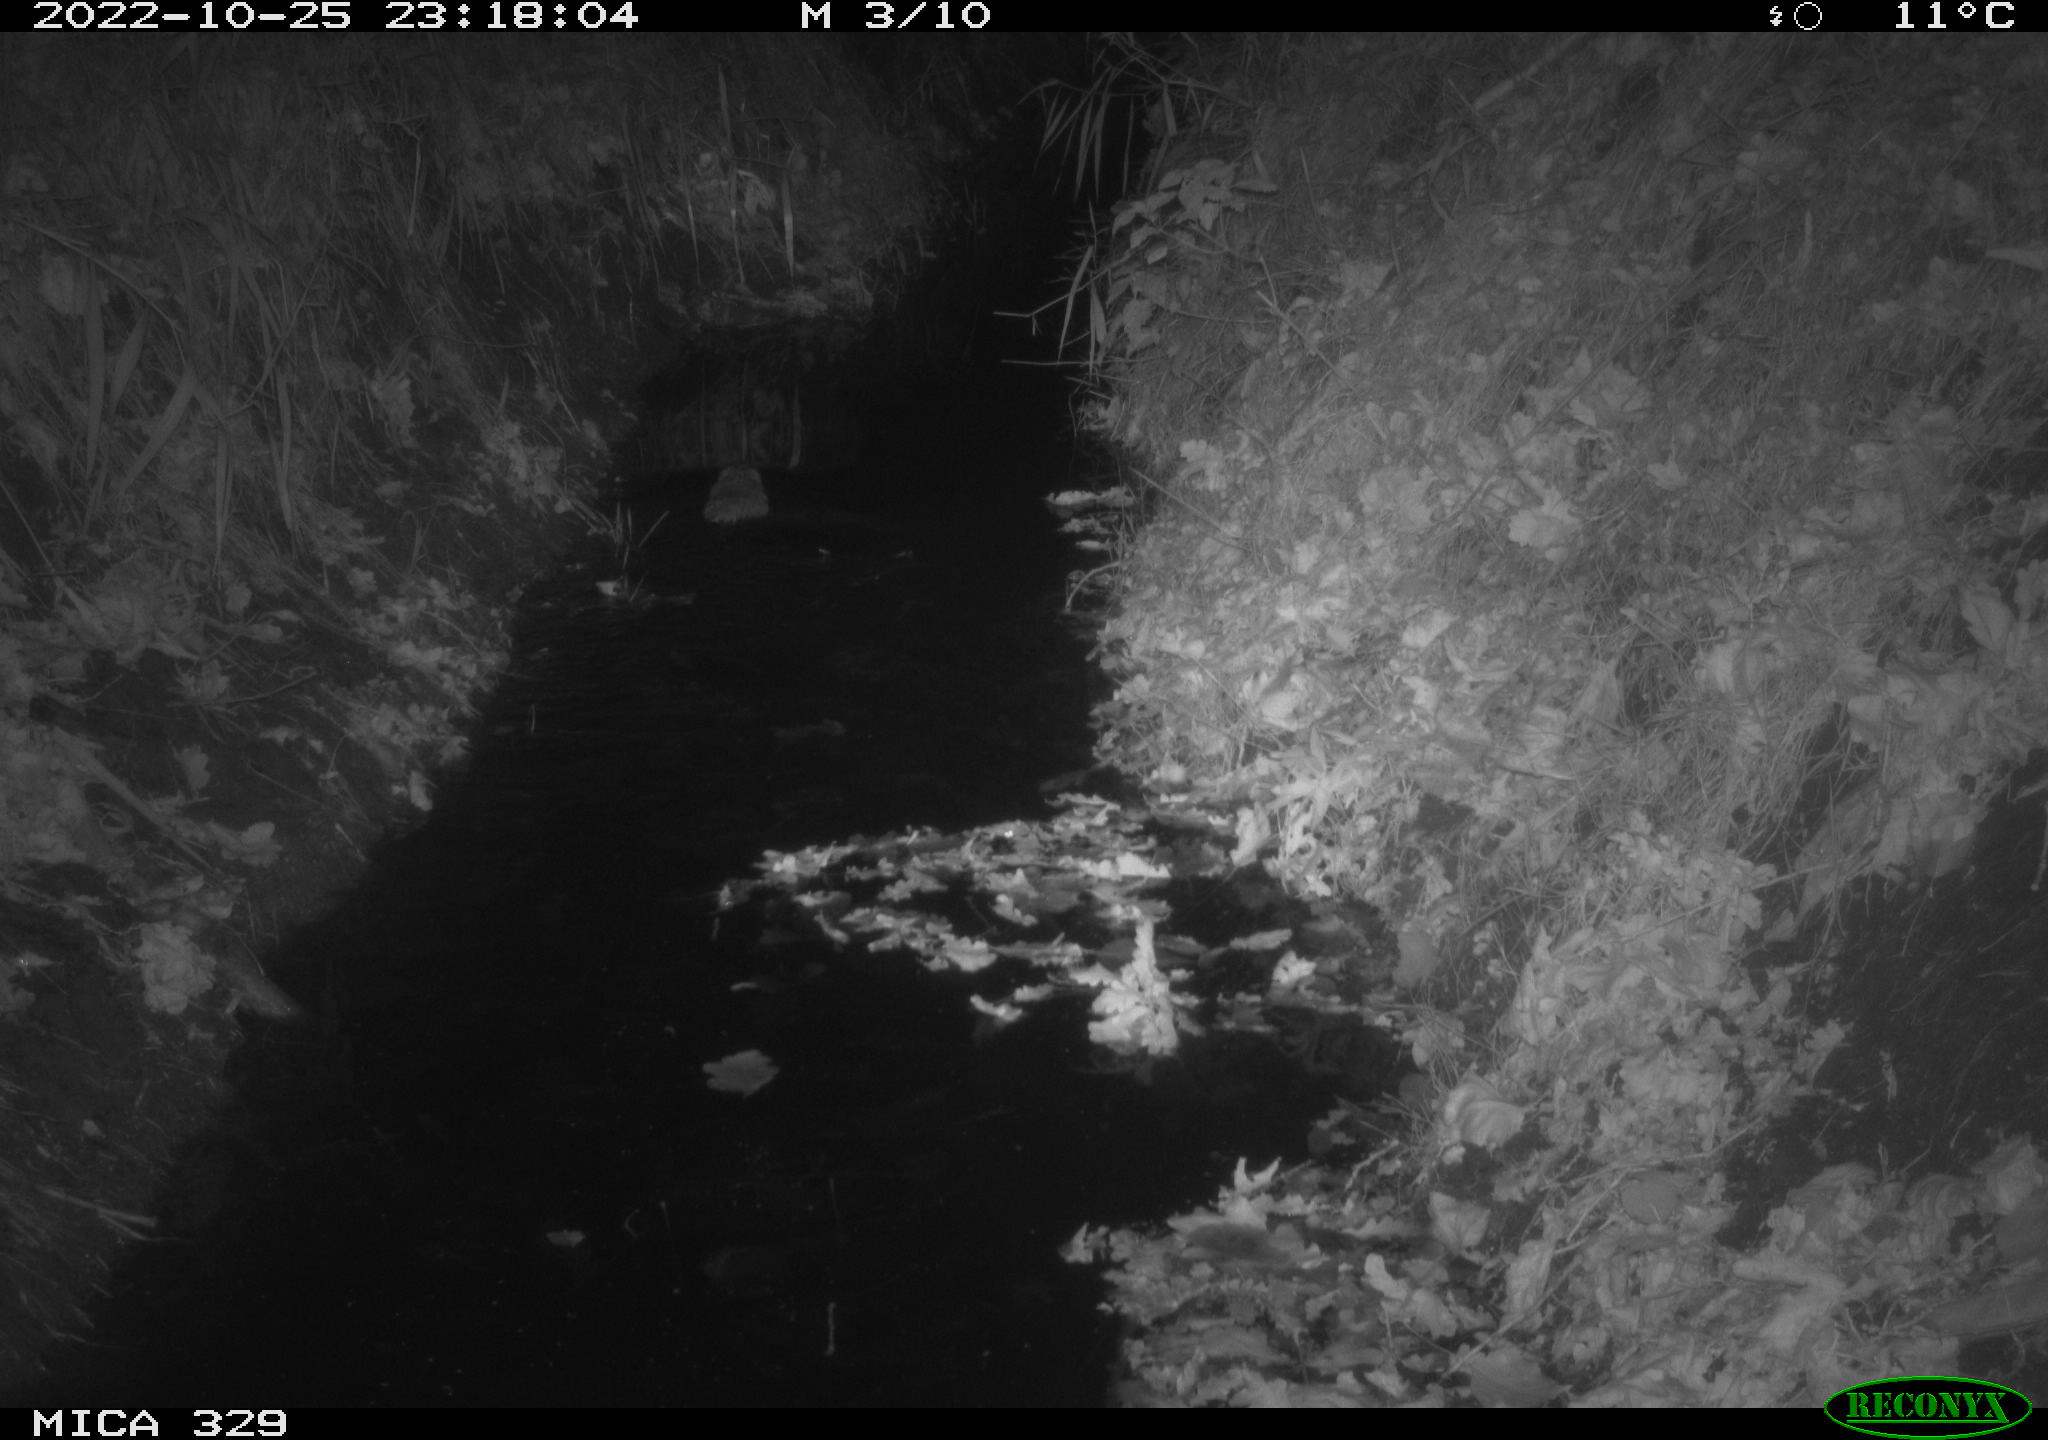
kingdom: Animalia
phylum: Chordata
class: Mammalia
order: Rodentia
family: Cricetidae
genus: Ondatra
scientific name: Ondatra zibethicus
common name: Muskrat
